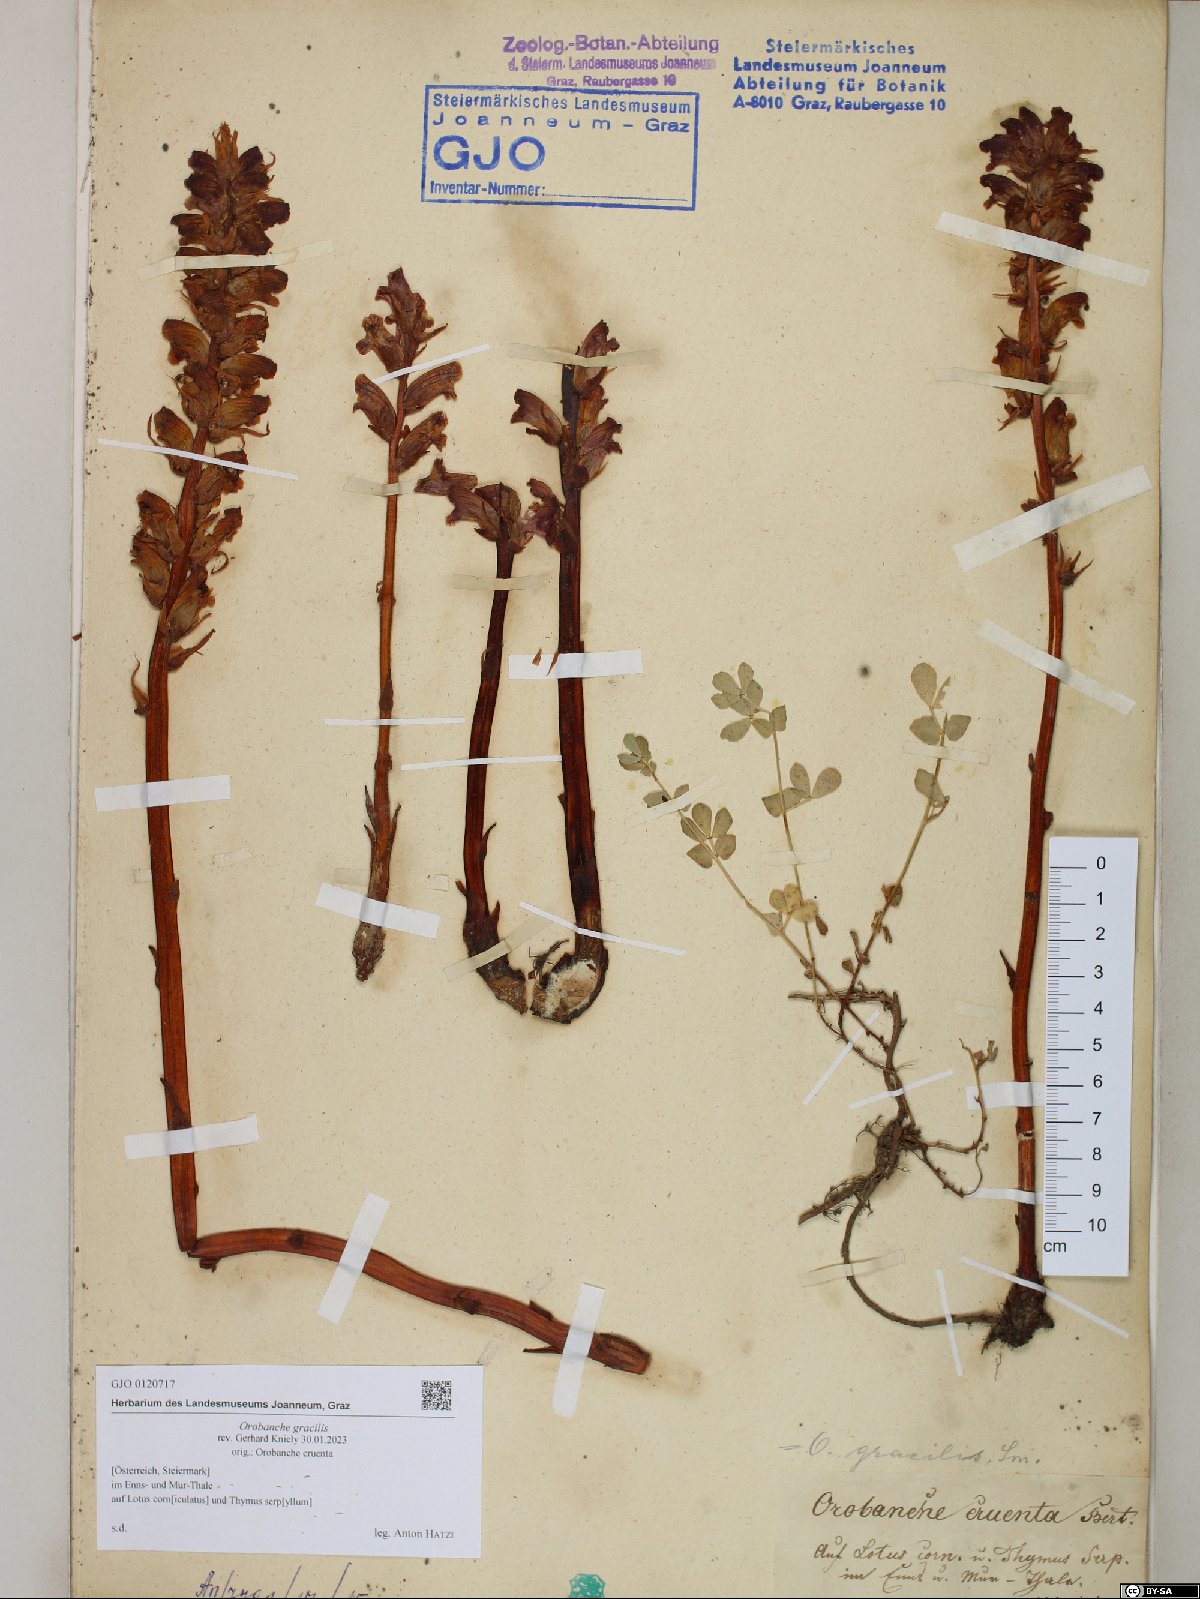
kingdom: Plantae
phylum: Tracheophyta
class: Magnoliopsida
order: Lamiales
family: Orobanchaceae
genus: Orobanche
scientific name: Orobanche gracilis
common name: Slender broomrape
